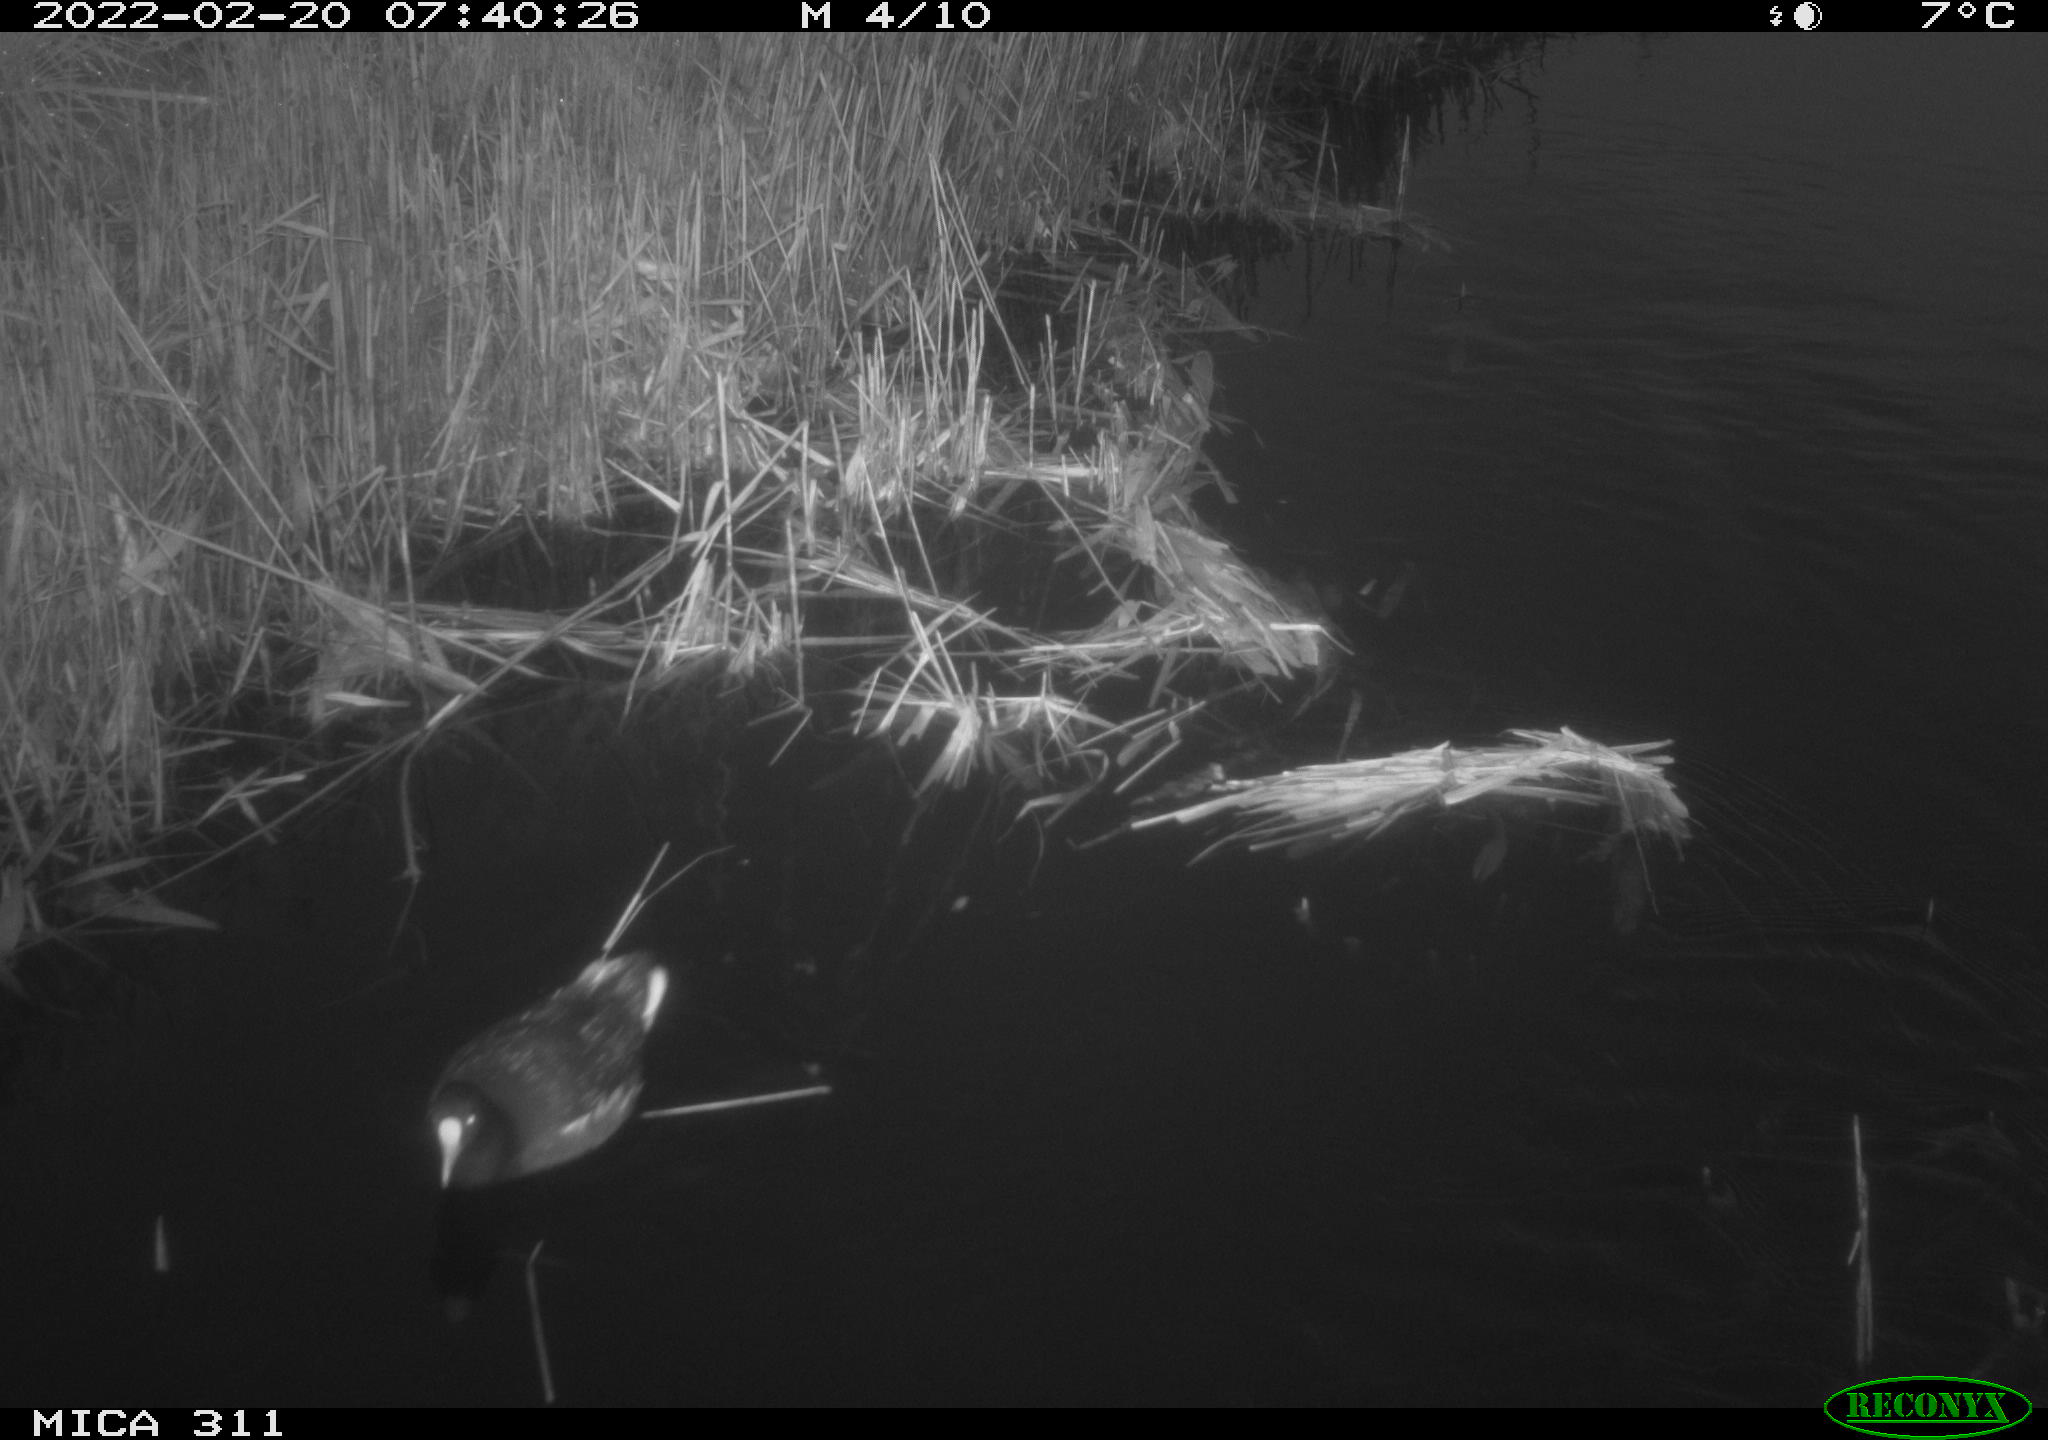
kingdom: Animalia
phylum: Chordata
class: Aves
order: Gruiformes
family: Rallidae
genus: Gallinula
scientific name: Gallinula chloropus
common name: Common moorhen
